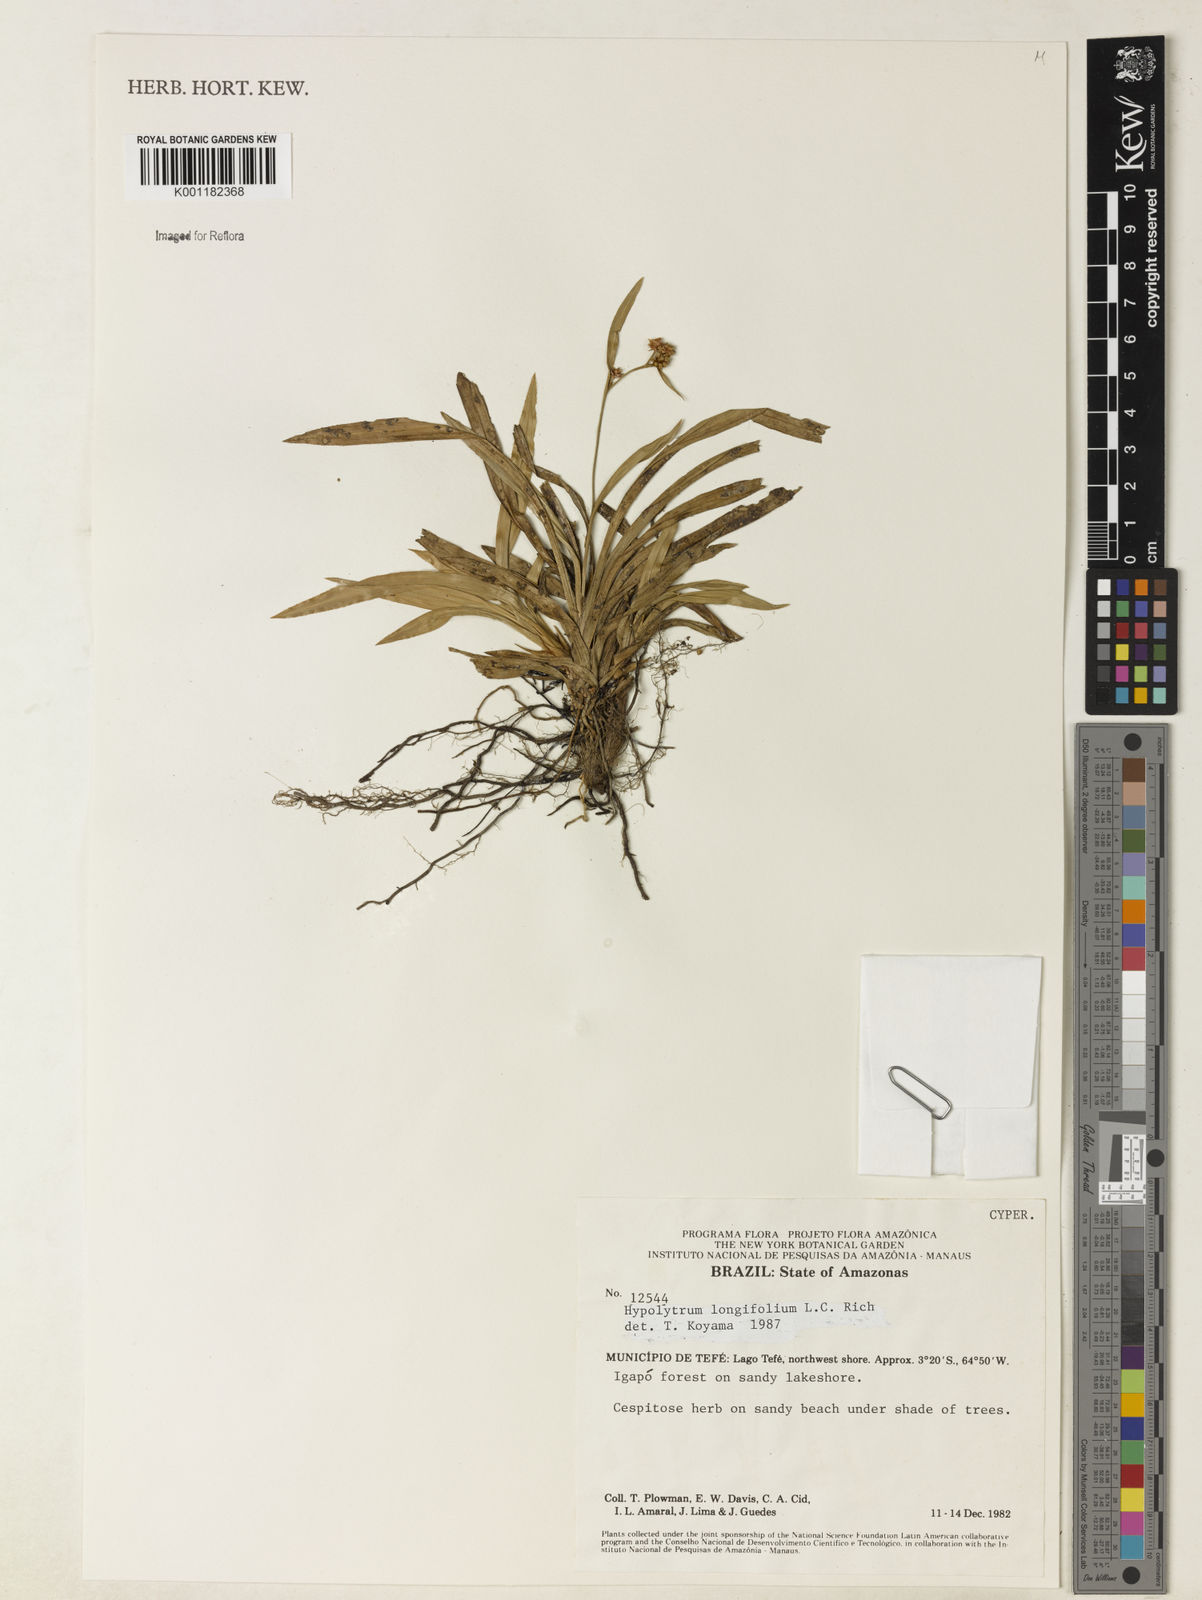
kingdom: Plantae
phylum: Tracheophyta
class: Liliopsida
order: Poales
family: Cyperaceae
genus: Hypolytrum
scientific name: Hypolytrum longifolium
